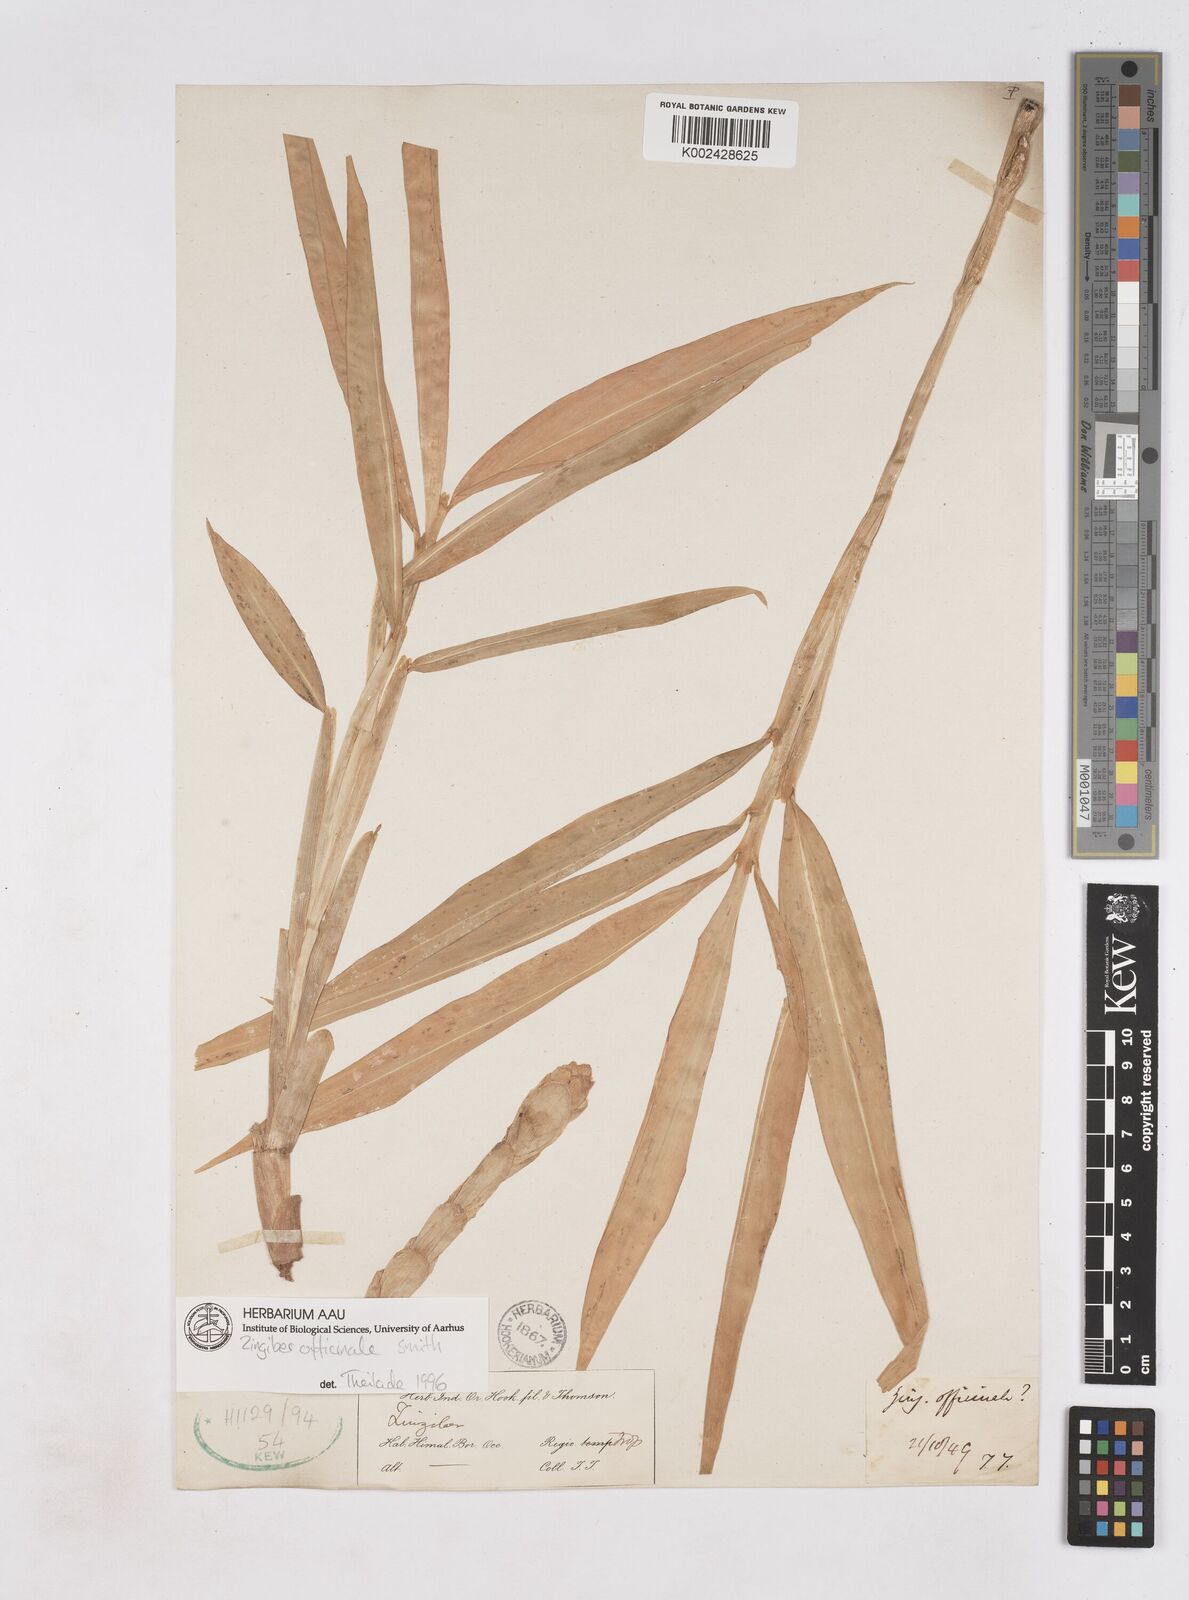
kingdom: Plantae
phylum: Tracheophyta
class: Liliopsida
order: Zingiberales
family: Zingiberaceae
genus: Zingiber
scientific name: Zingiber officinale
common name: Ginger
